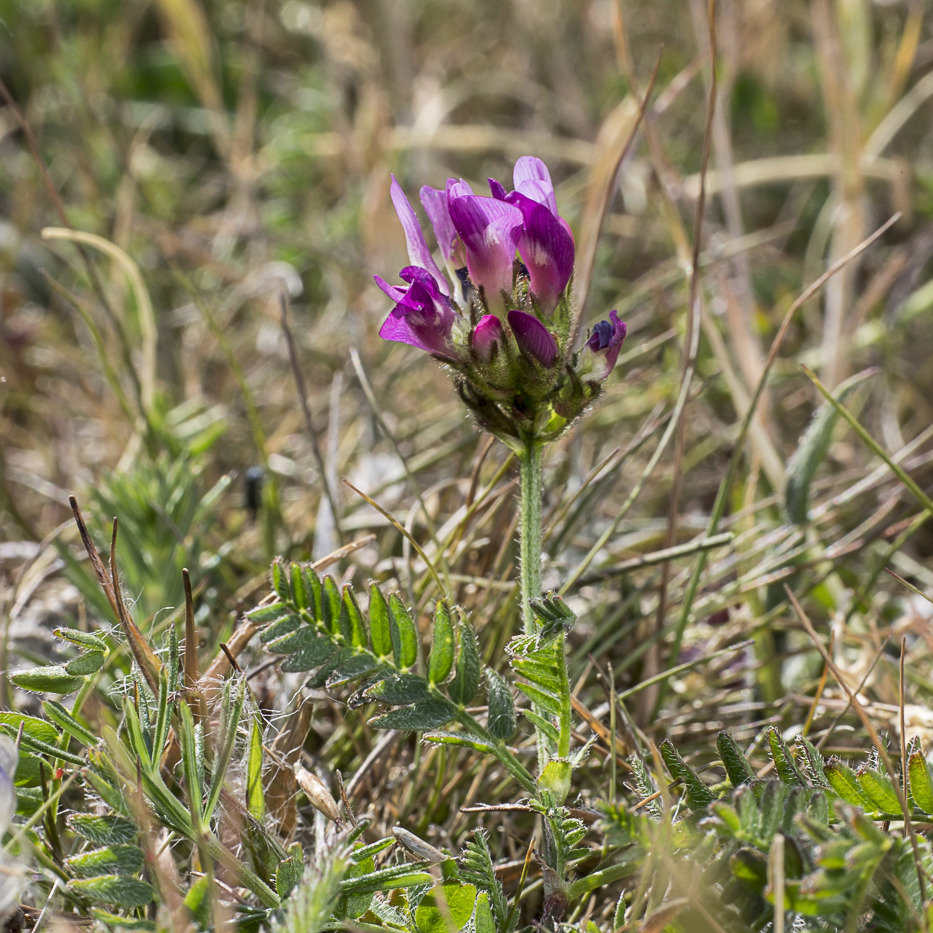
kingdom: Plantae
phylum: Tracheophyta
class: Magnoliopsida
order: Fabales
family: Fabaceae
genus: Astragalus
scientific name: Astragalus danicus
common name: Dansk astragel
